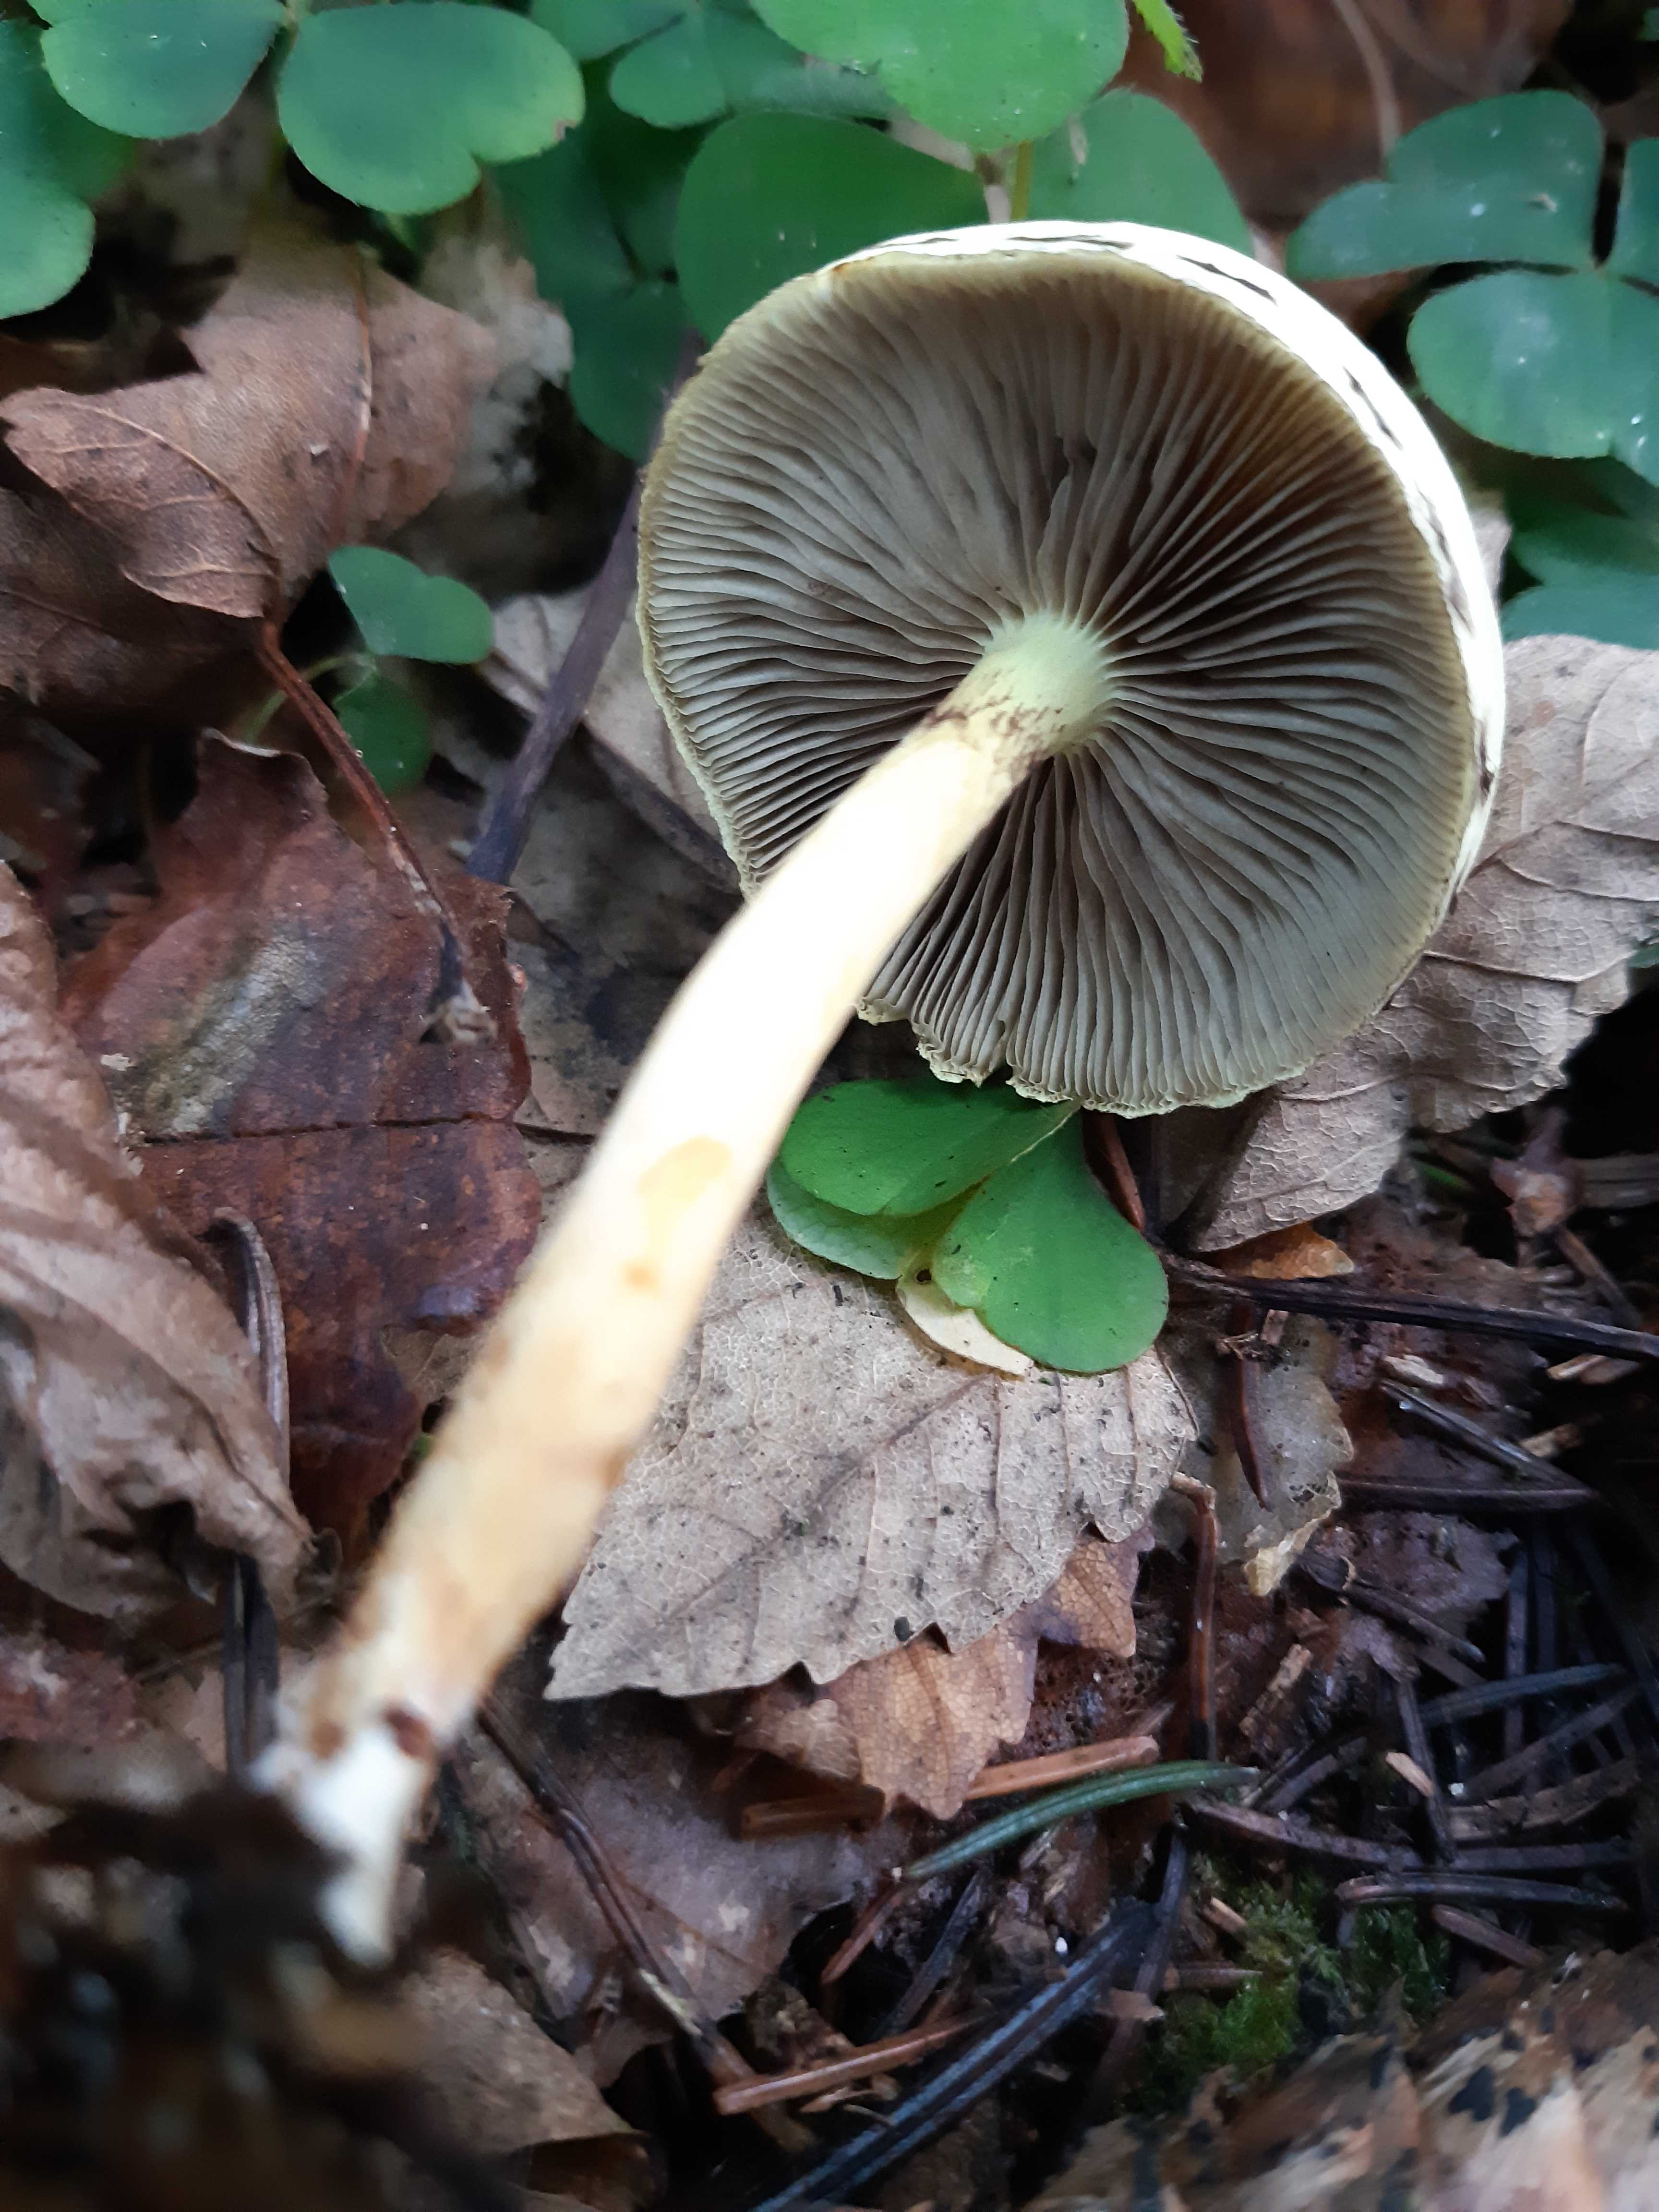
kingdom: Fungi
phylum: Basidiomycota
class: Agaricomycetes
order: Agaricales
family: Strophariaceae
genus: Hypholoma
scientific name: Hypholoma fasciculare
